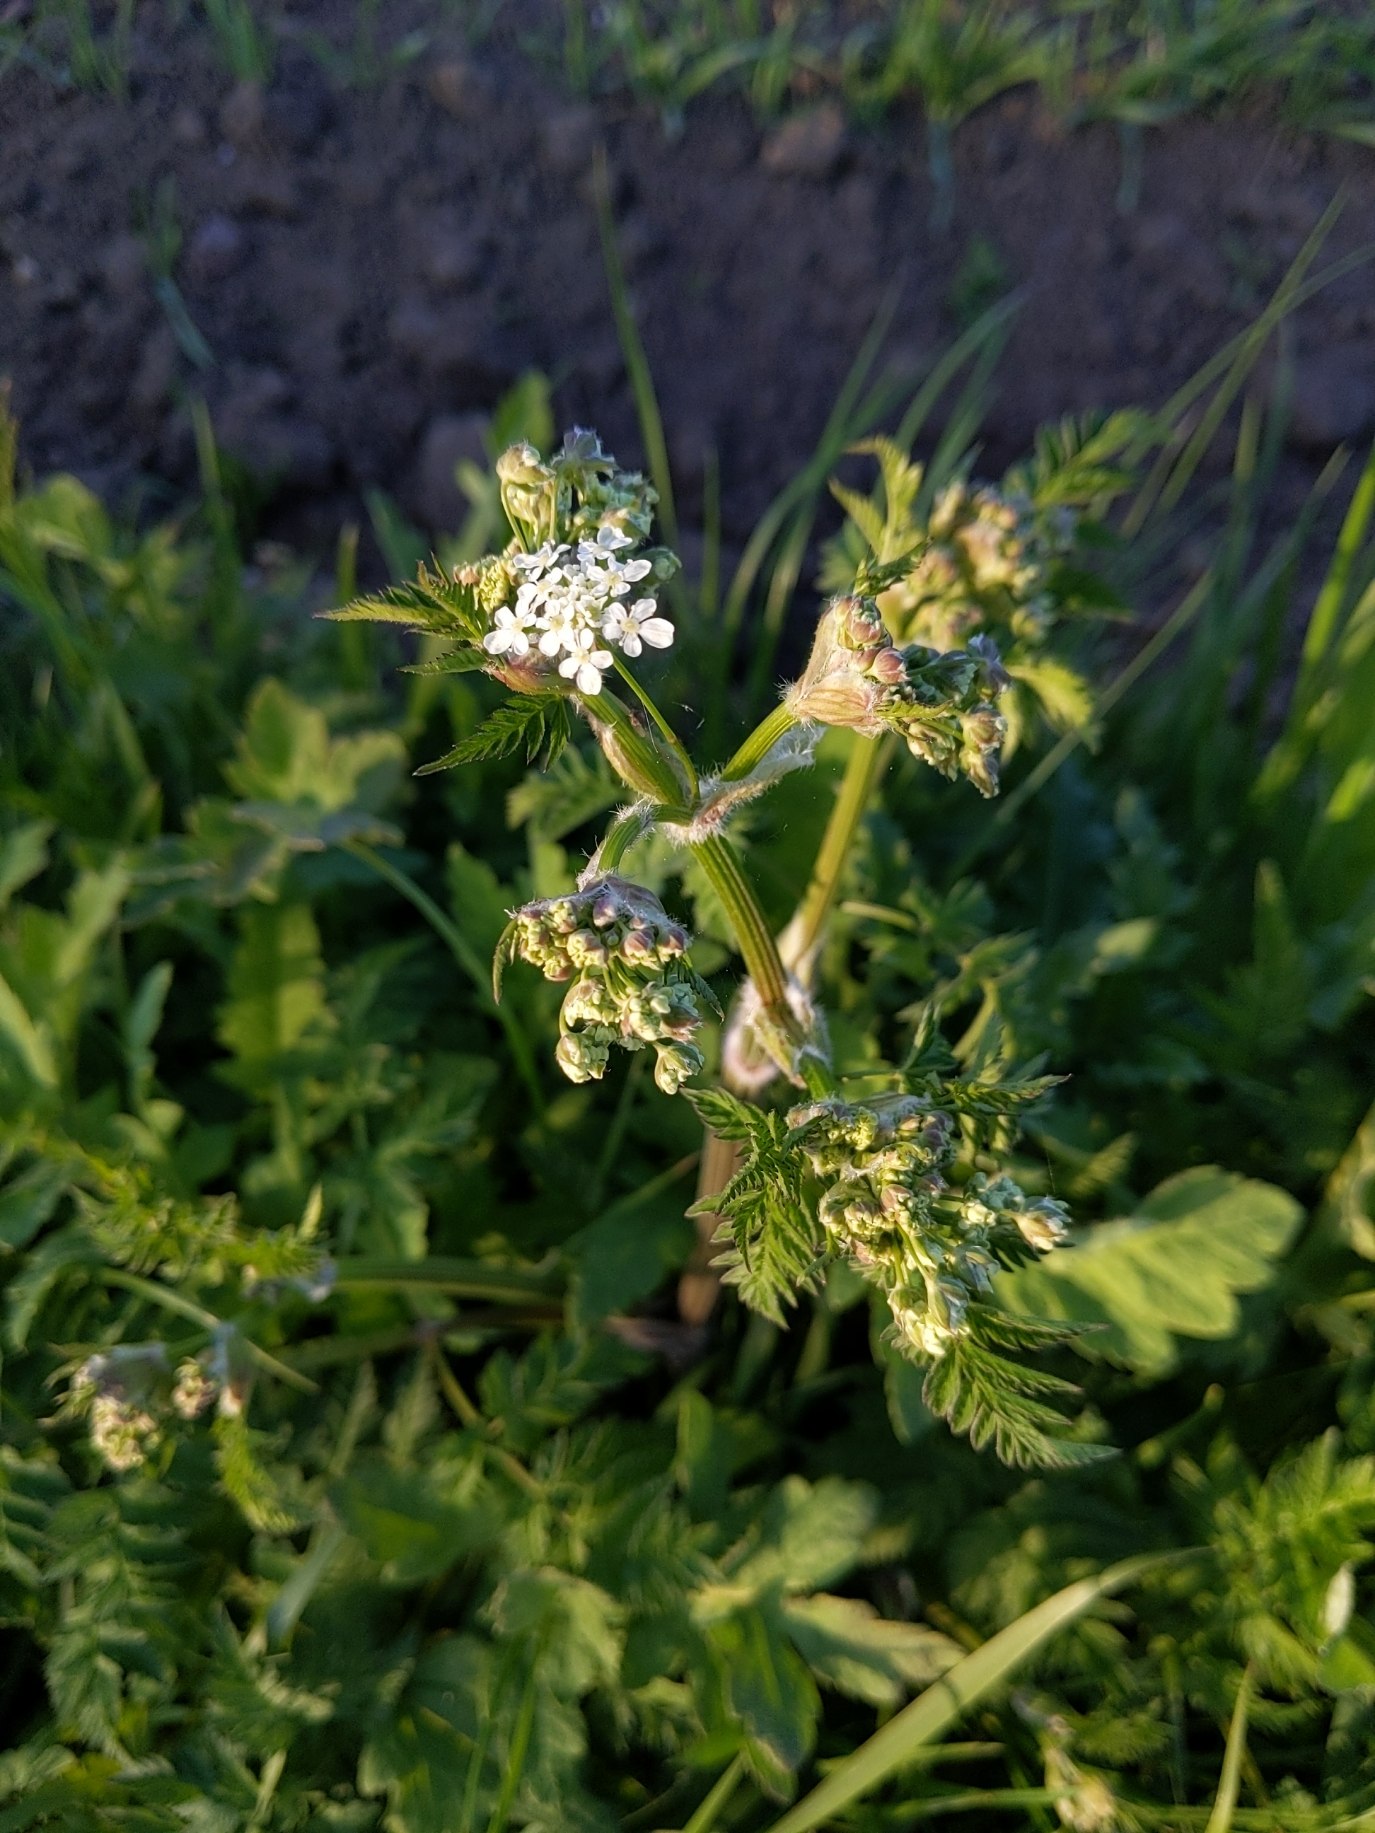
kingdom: Plantae
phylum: Tracheophyta
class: Magnoliopsida
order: Apiales
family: Apiaceae
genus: Anthriscus
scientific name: Anthriscus sylvestris
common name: Vild kørvel
